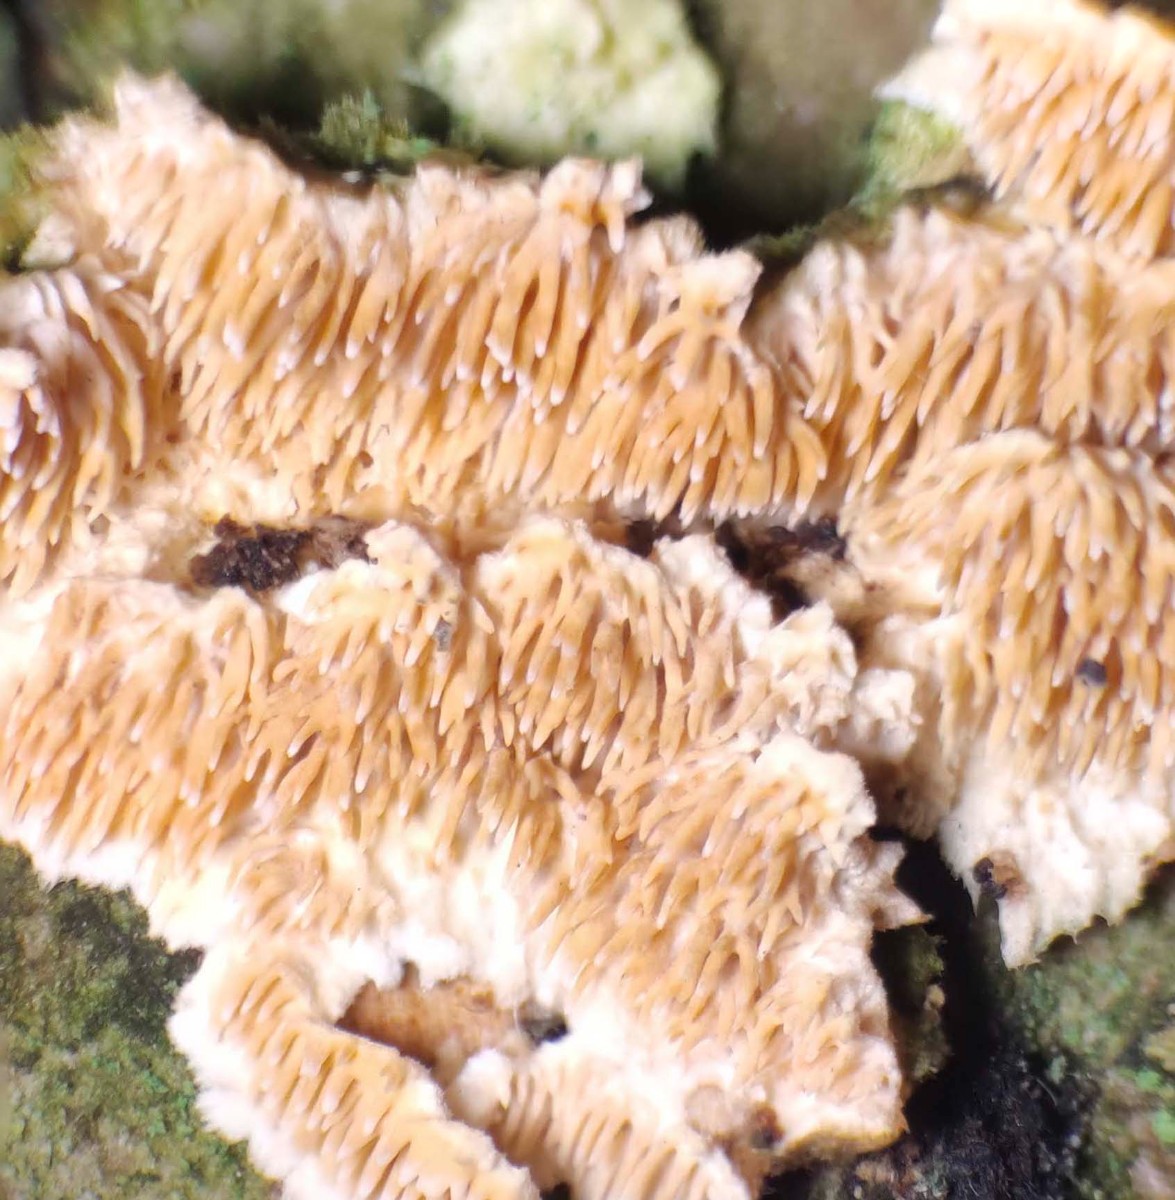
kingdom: Fungi
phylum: Basidiomycota
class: Agaricomycetes
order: Polyporales
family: Steccherinaceae
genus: Steccherinum
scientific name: Steccherinum bourdotii
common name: hat-skønpig
